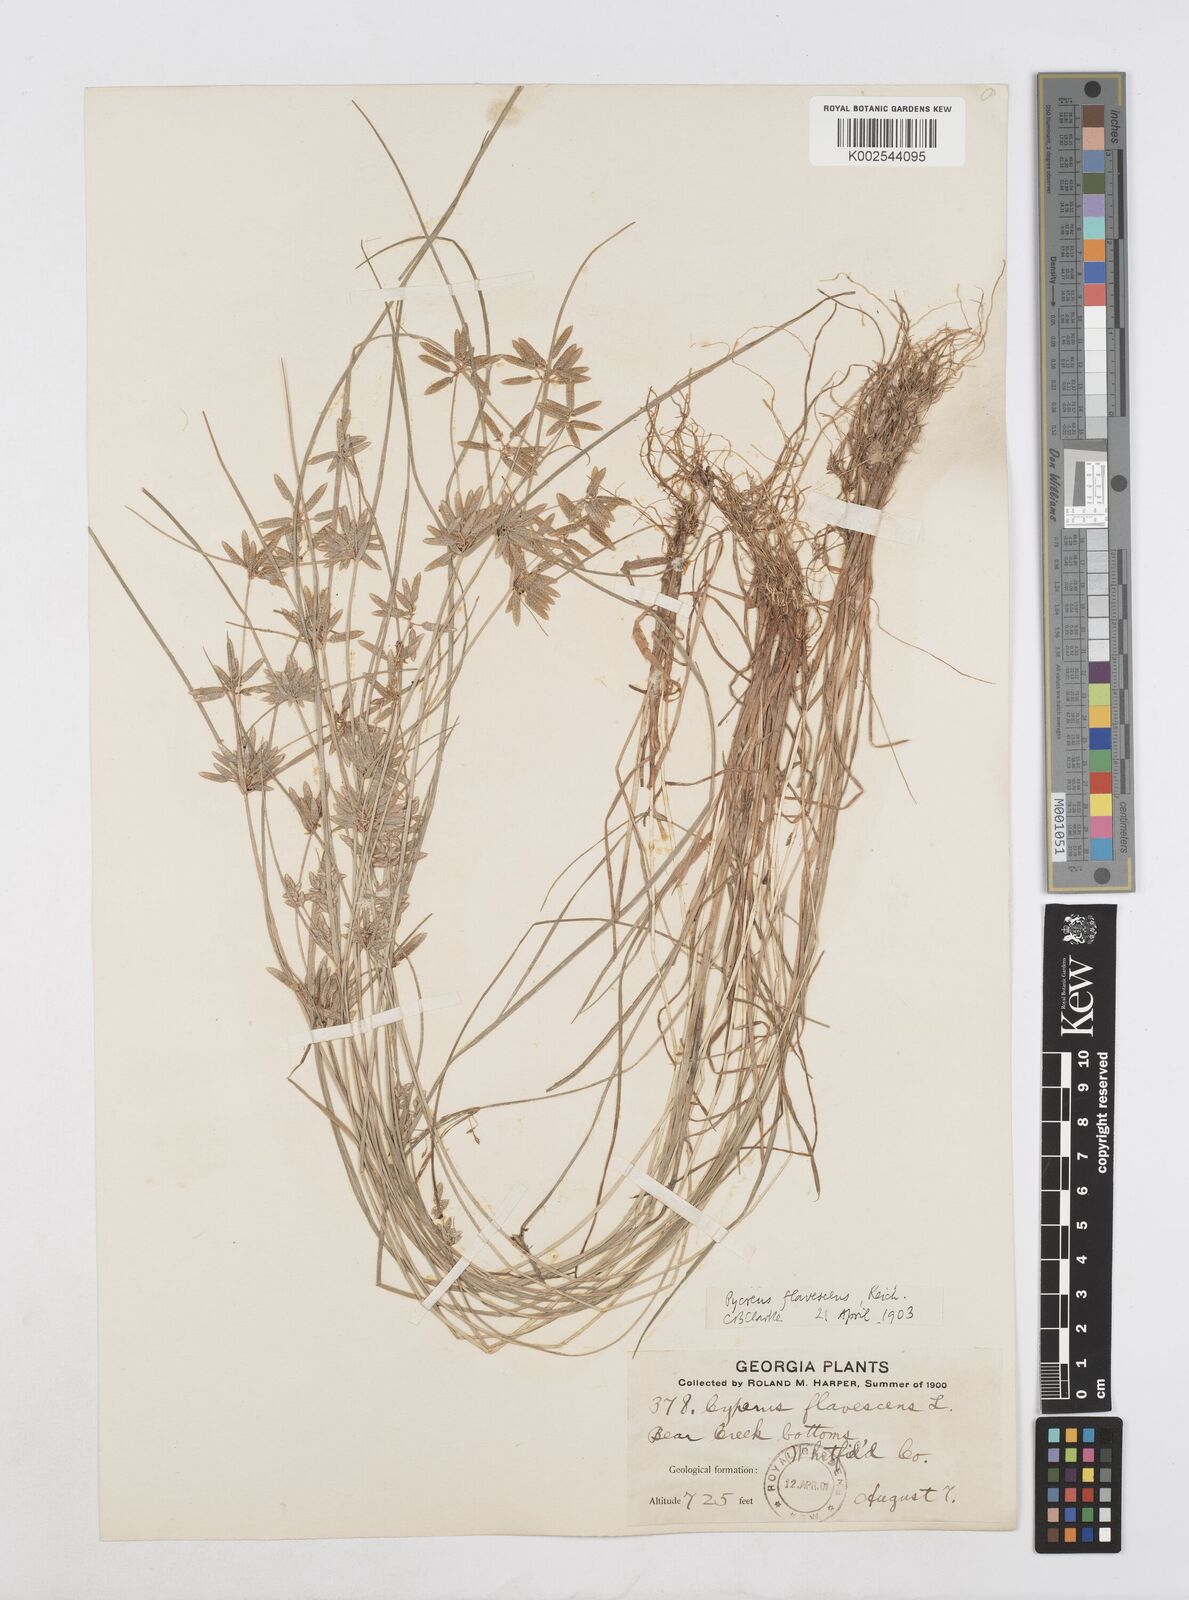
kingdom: Plantae
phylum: Tracheophyta
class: Liliopsida
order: Poales
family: Cyperaceae
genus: Cyperus
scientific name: Cyperus flavescens
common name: Yellow galingale
